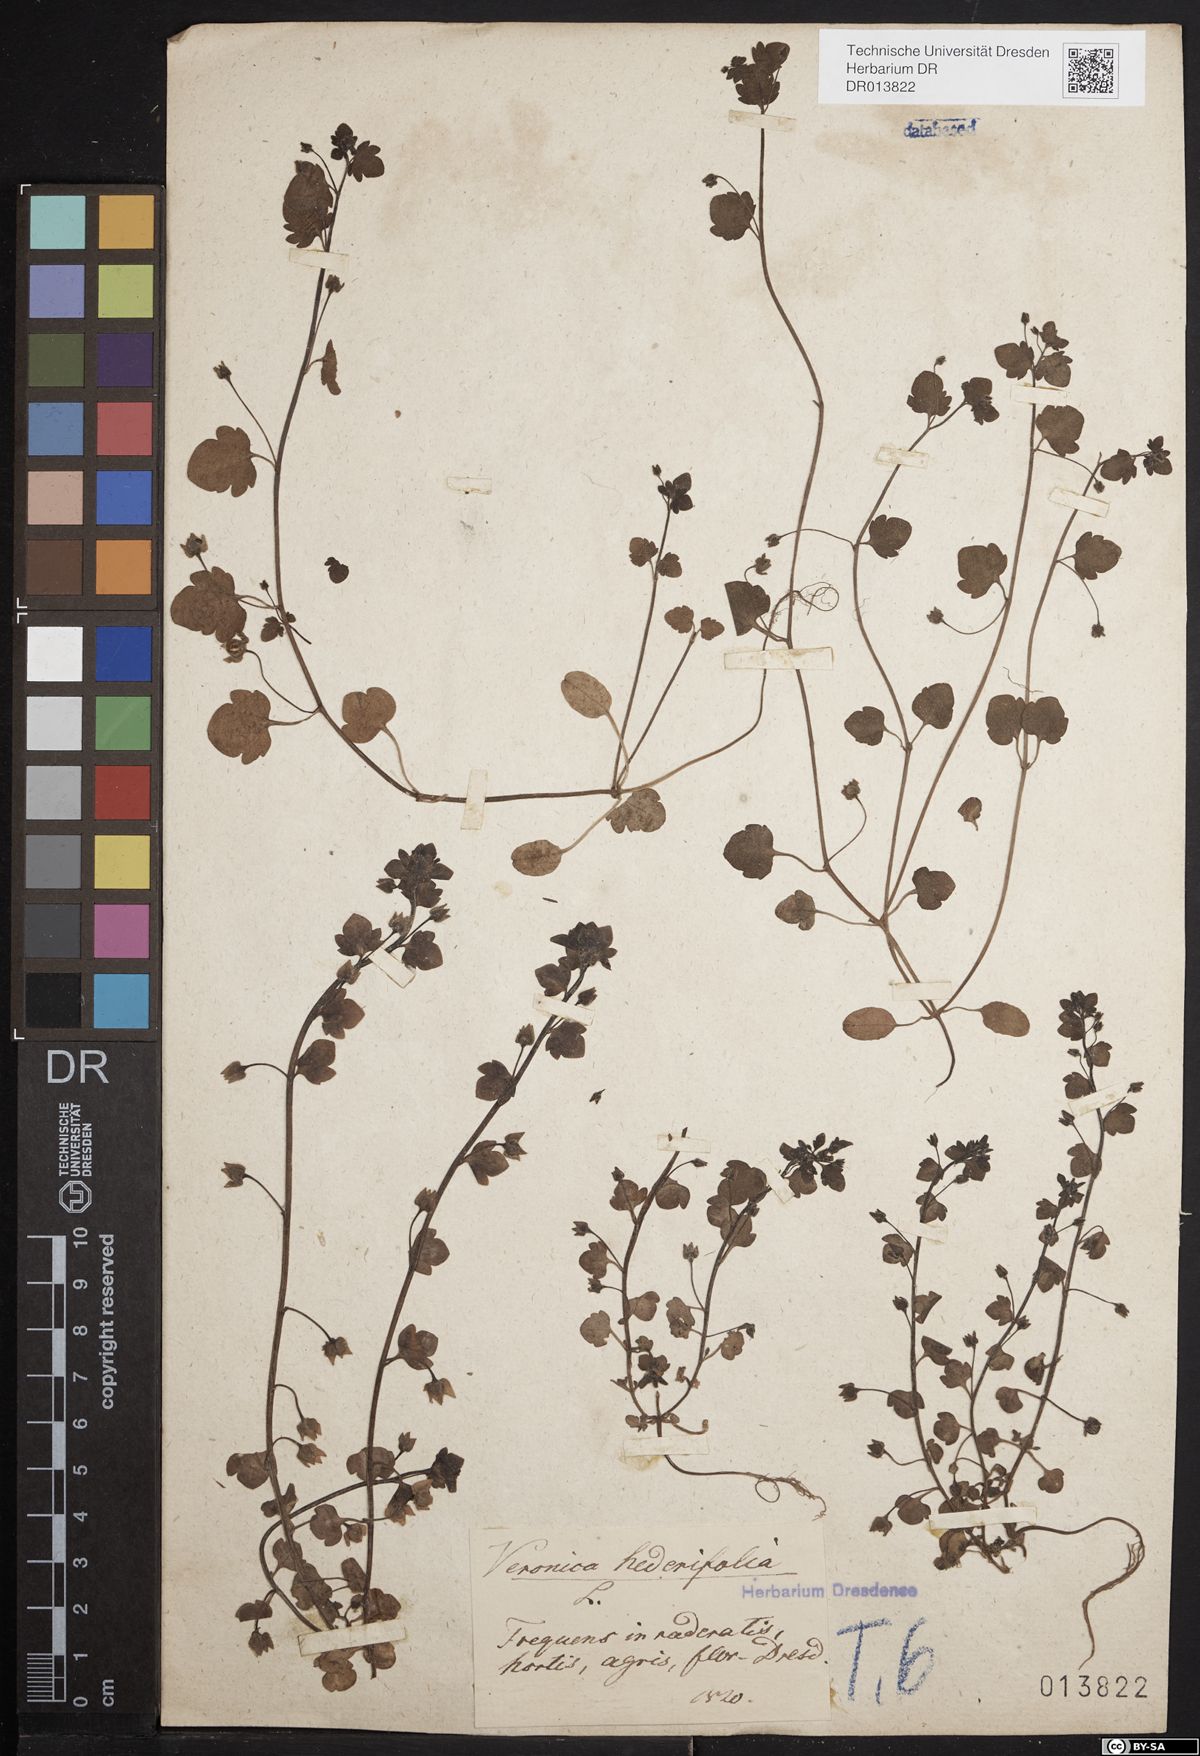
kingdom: Plantae
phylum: Tracheophyta
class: Magnoliopsida
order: Lamiales
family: Plantaginaceae
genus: Veronica
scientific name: Veronica hederifolia
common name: Ivy-leaved speedwell
